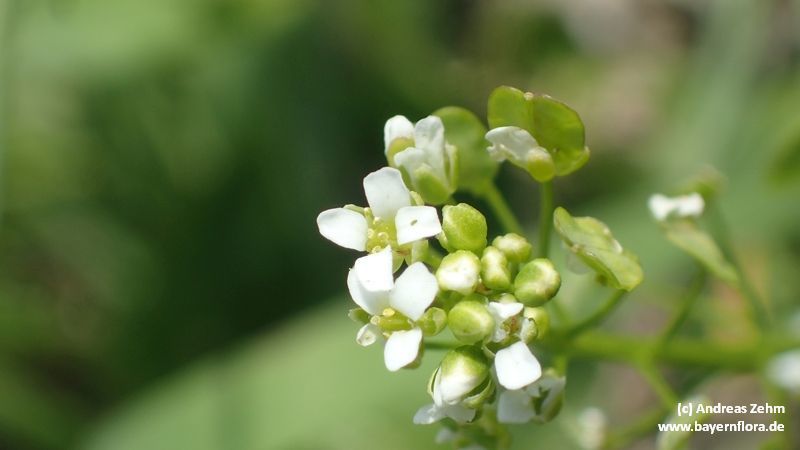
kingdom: Plantae
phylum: Tracheophyta
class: Magnoliopsida
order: Brassicales
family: Brassicaceae
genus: Thlaspi
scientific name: Thlaspi arvense
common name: Field pennycress
